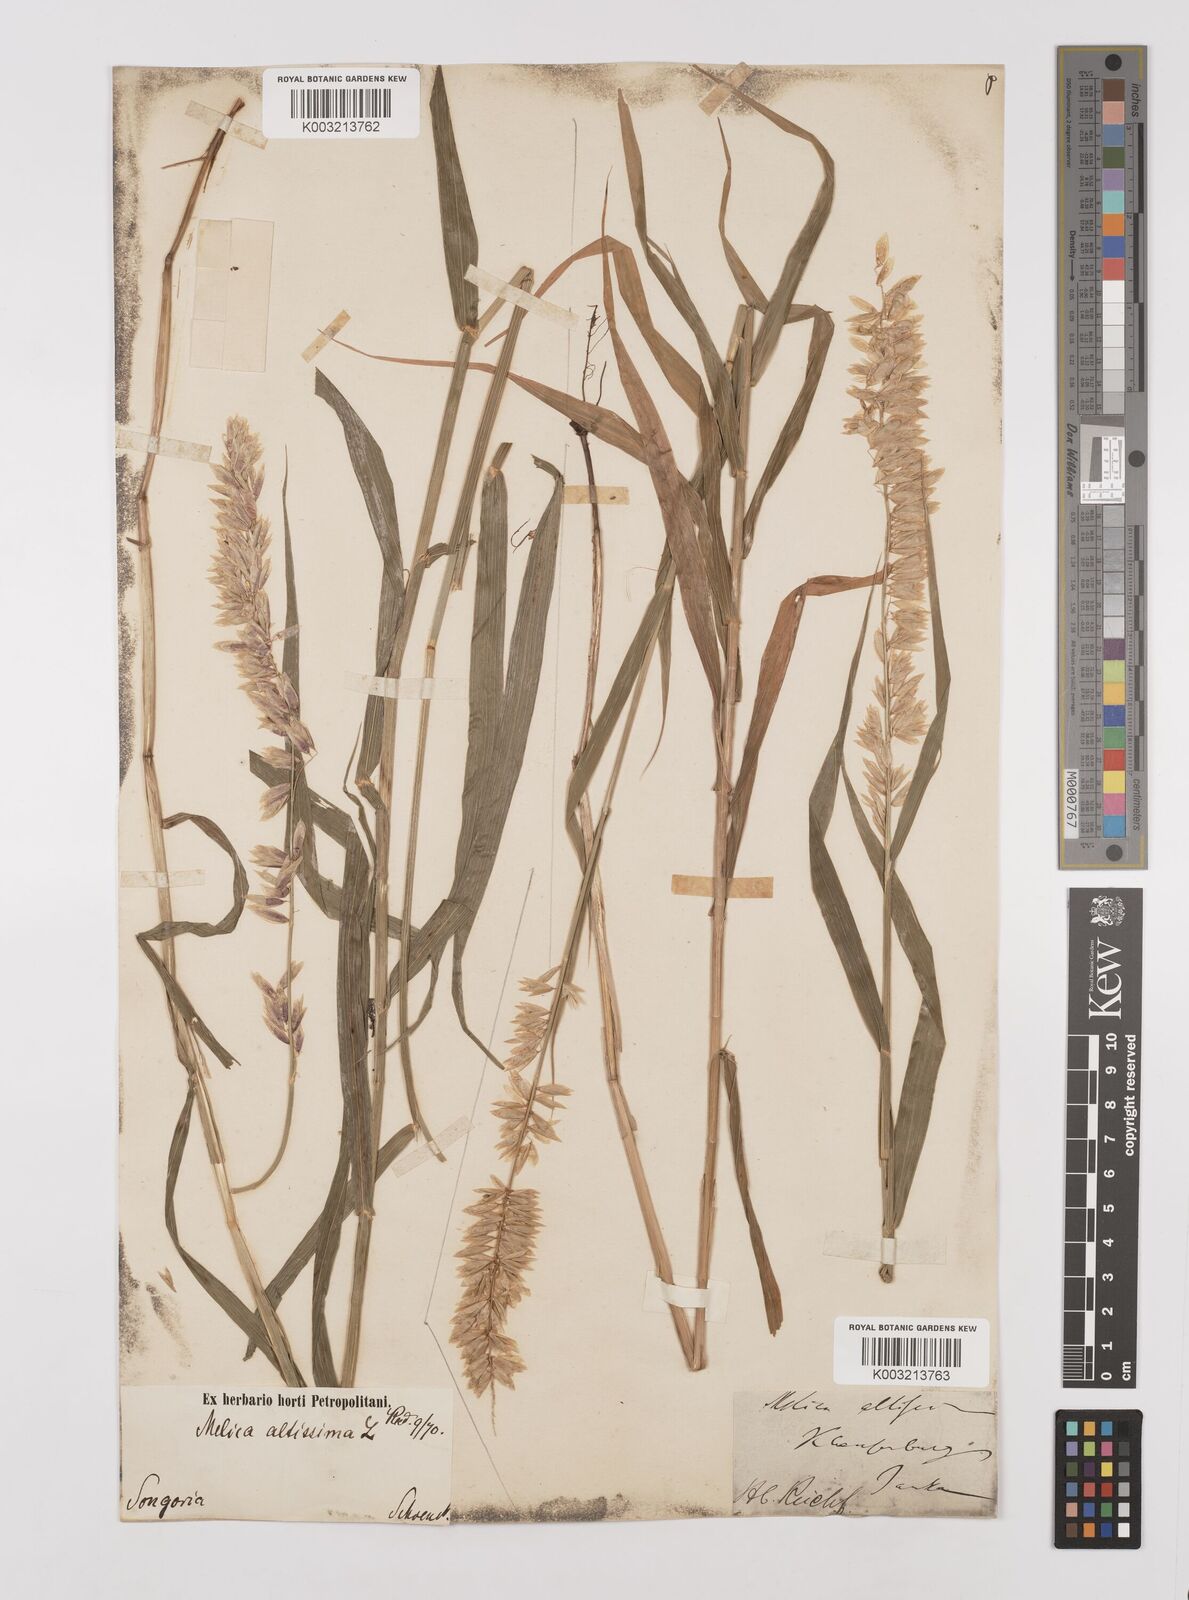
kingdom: Plantae
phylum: Tracheophyta
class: Liliopsida
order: Poales
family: Poaceae
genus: Melica
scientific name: Melica
